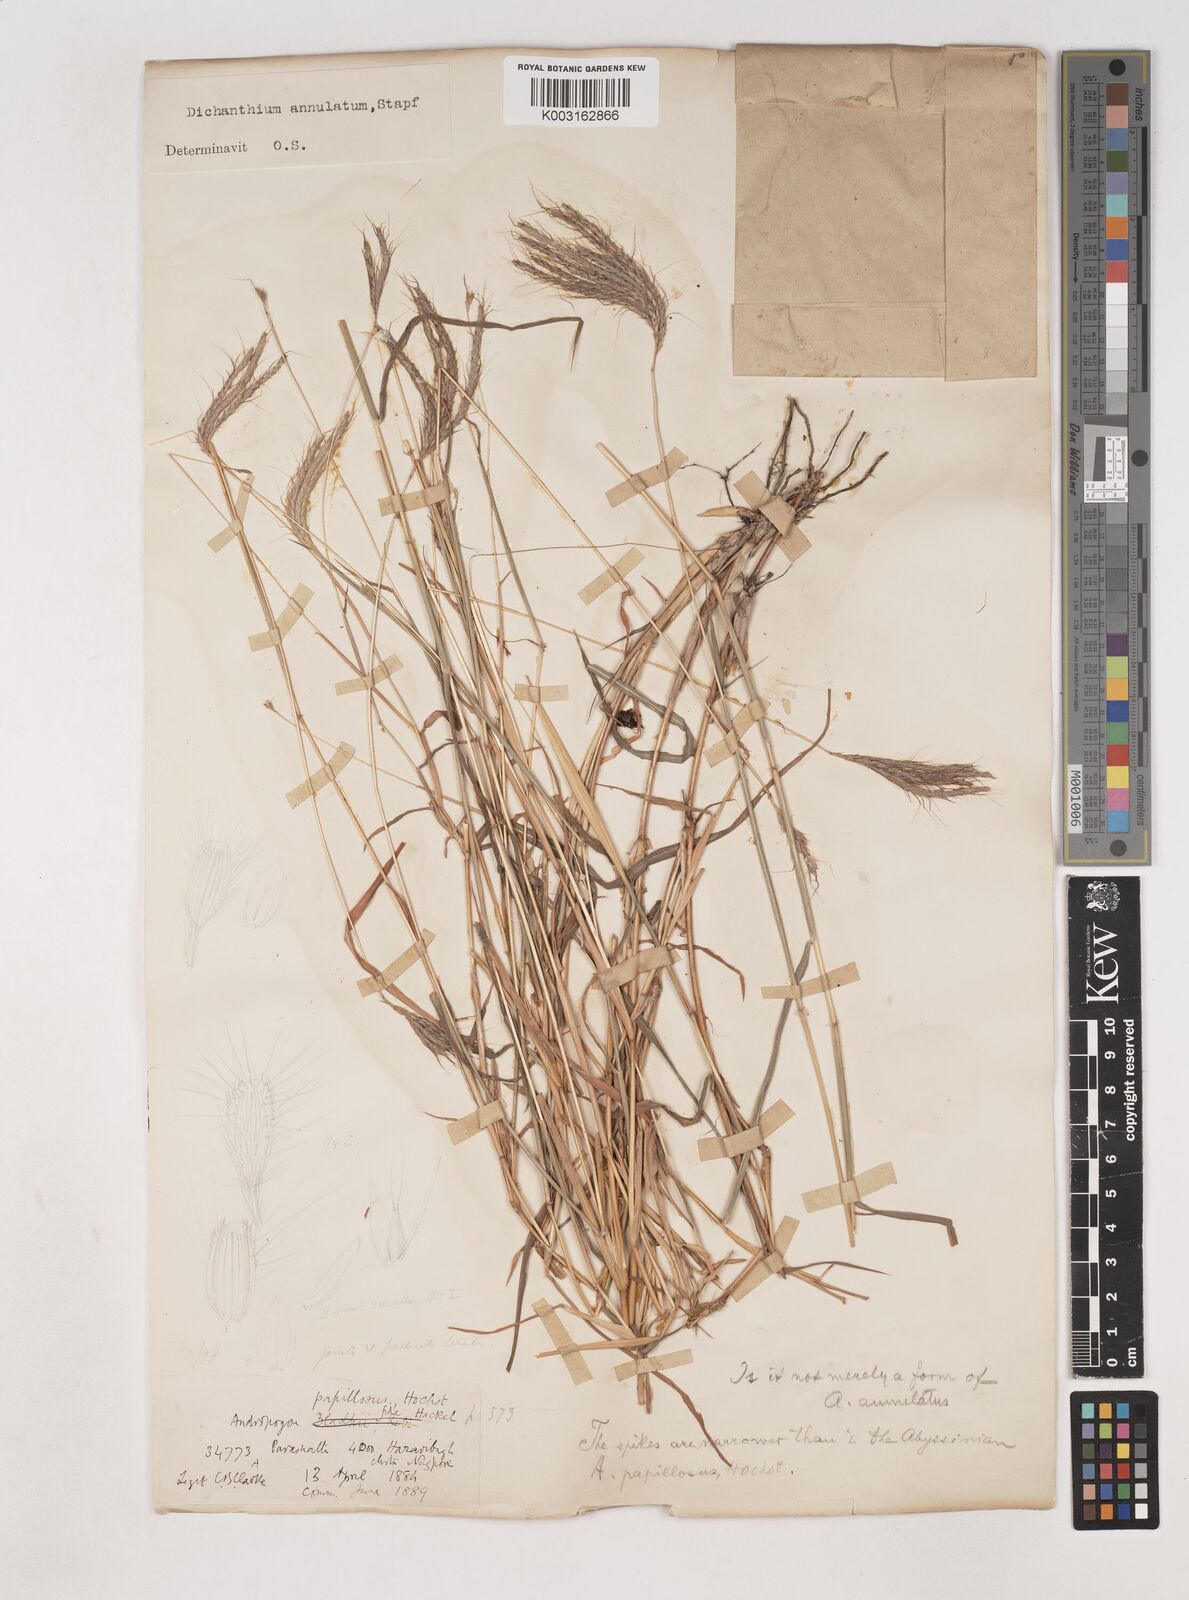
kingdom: Plantae
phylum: Tracheophyta
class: Liliopsida
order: Poales
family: Poaceae
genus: Dichanthium
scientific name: Dichanthium annulatum
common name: Kleberg's bluestem
